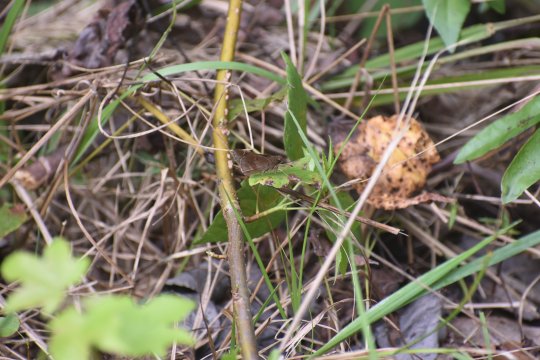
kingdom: Animalia
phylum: Arthropoda
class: Insecta
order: Lepidoptera
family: Hesperiidae
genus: Lerema
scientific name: Lerema accius
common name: Clouded Skipper
